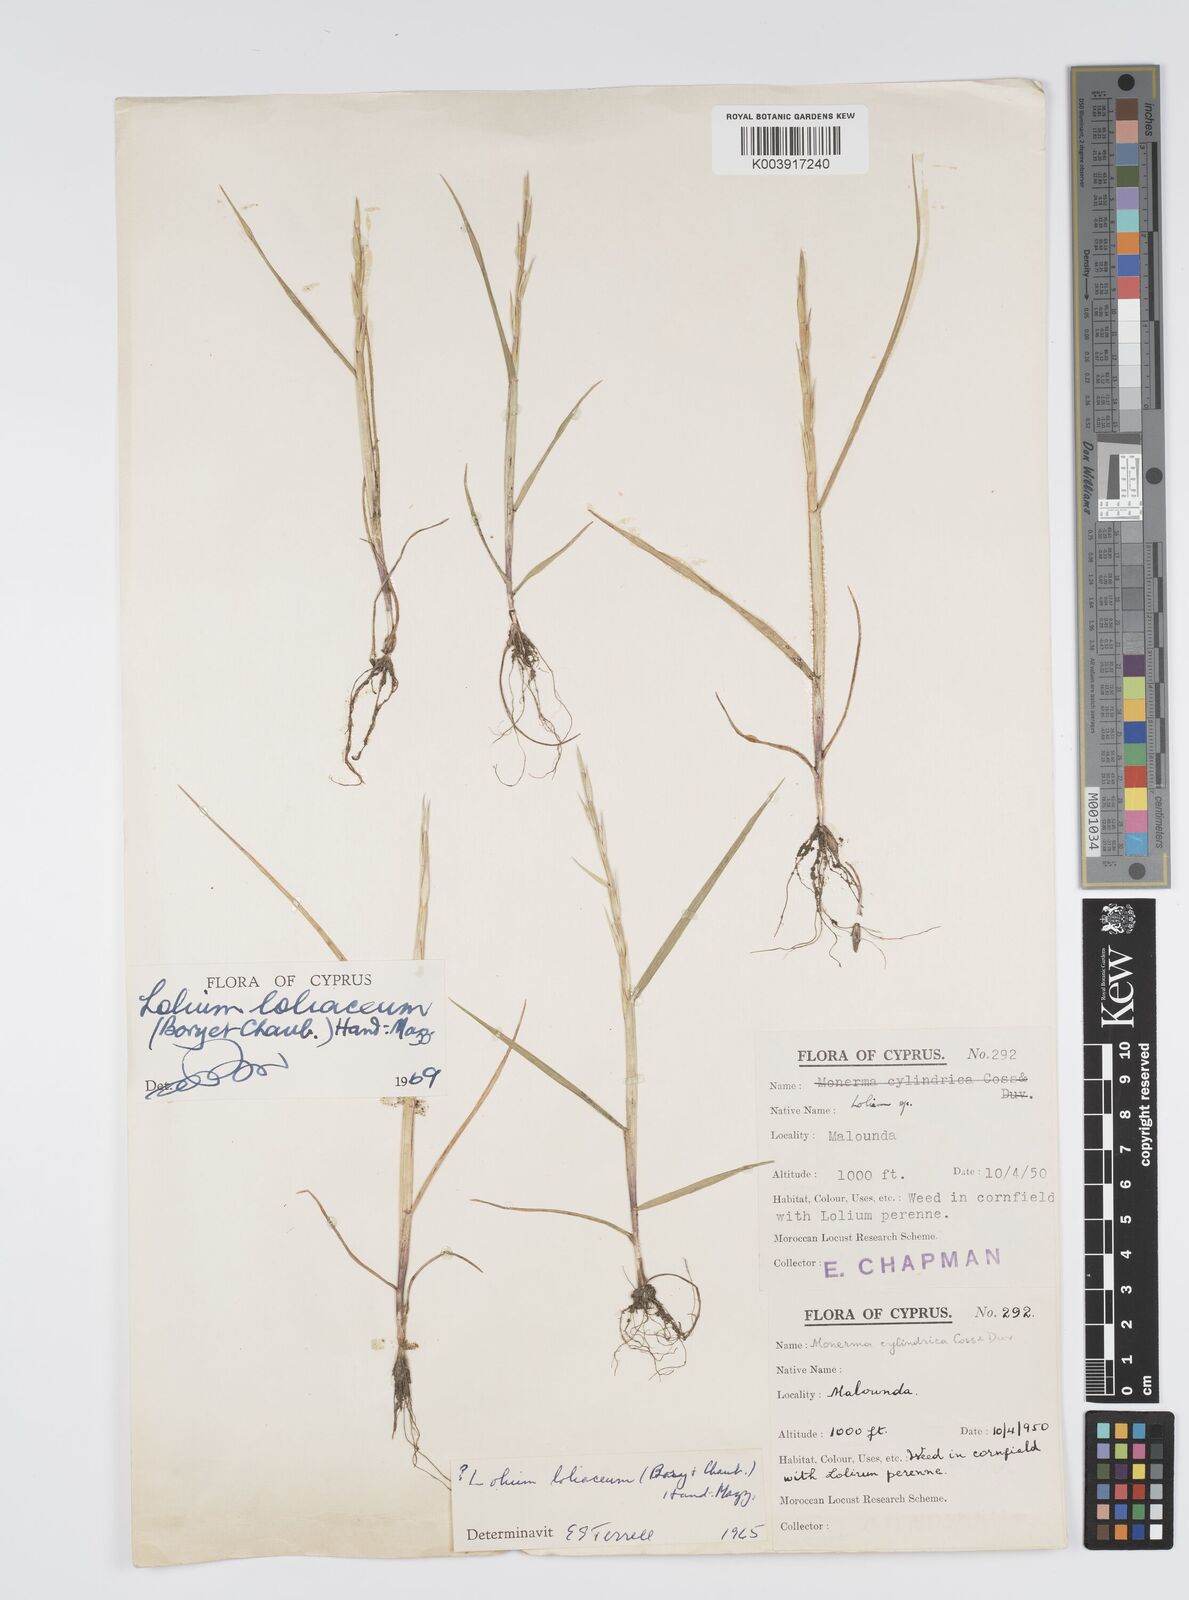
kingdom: Plantae
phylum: Tracheophyta
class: Liliopsida
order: Poales
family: Poaceae
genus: Lolium
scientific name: Lolium rigidum
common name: Wimmera ryegrass
